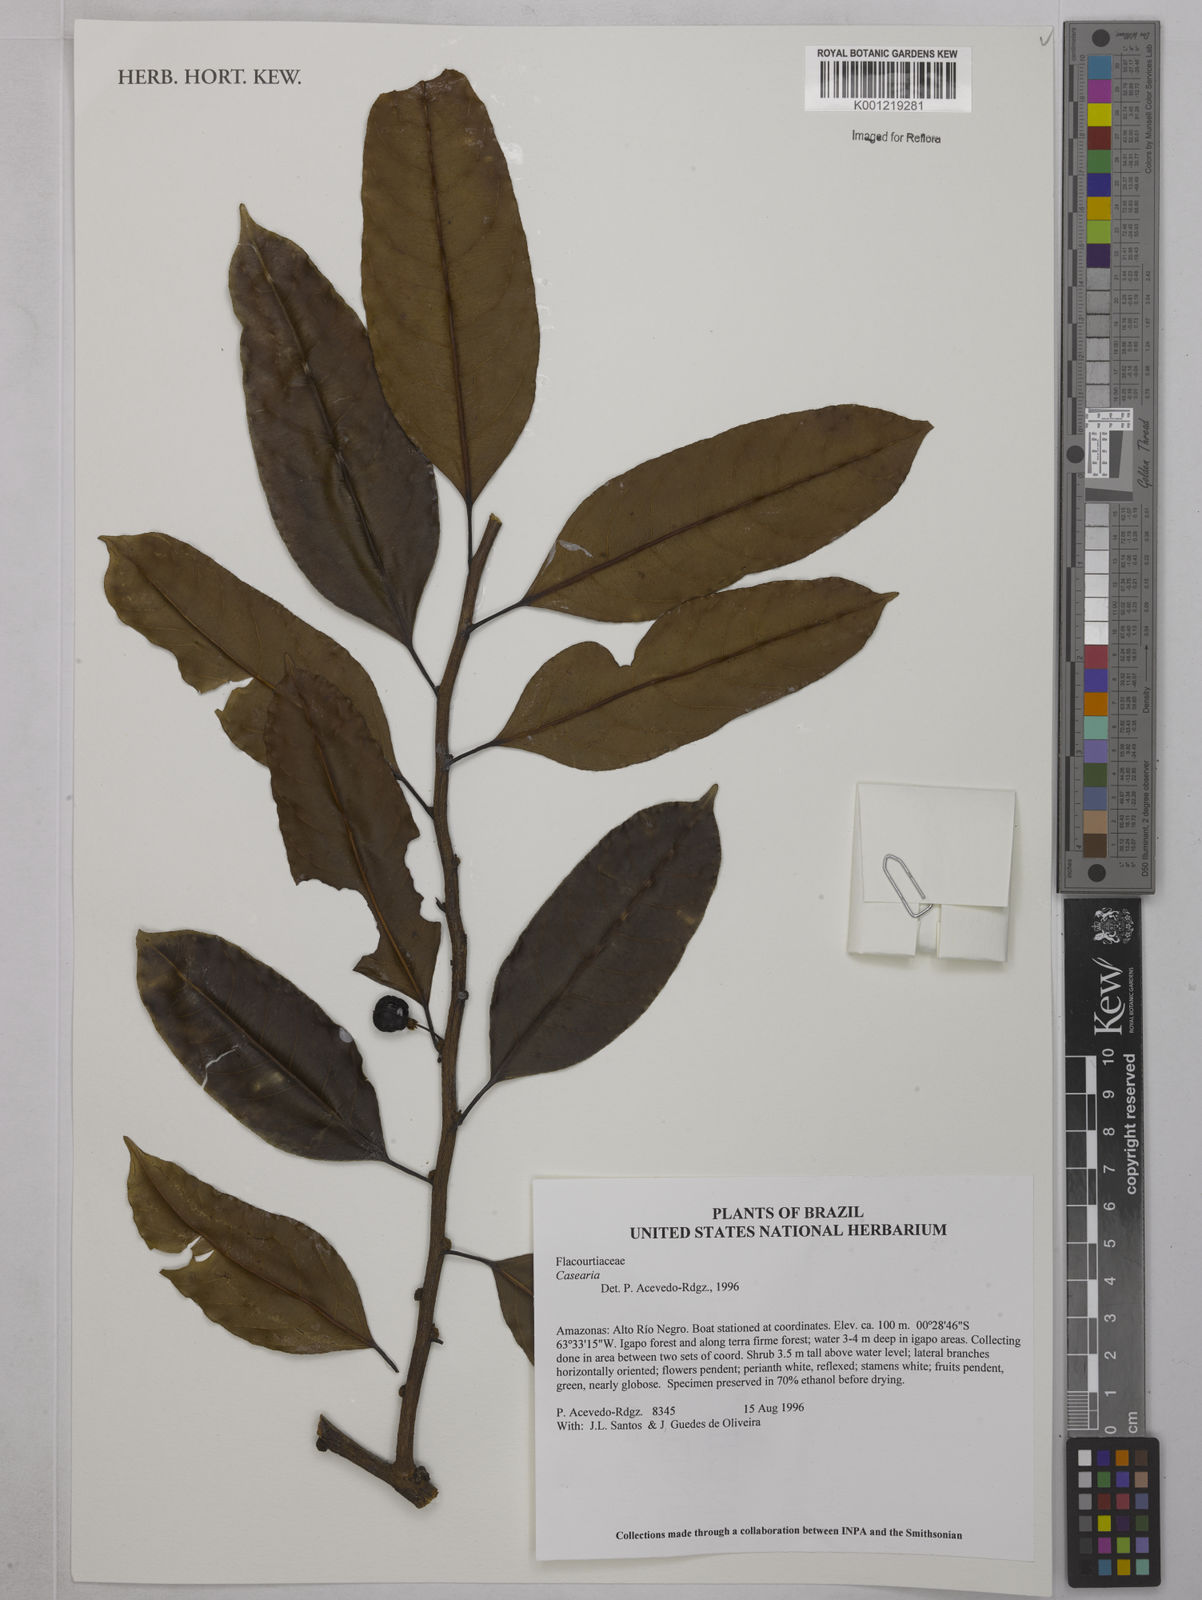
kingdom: Plantae
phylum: Tracheophyta
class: Magnoliopsida
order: Malpighiales
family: Salicaceae
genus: Casearia
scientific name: Casearia
